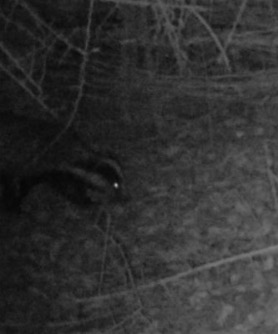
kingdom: Animalia
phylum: Chordata
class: Mammalia
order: Carnivora
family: Mustelidae
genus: Meles
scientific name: Meles meles
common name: Grævling
